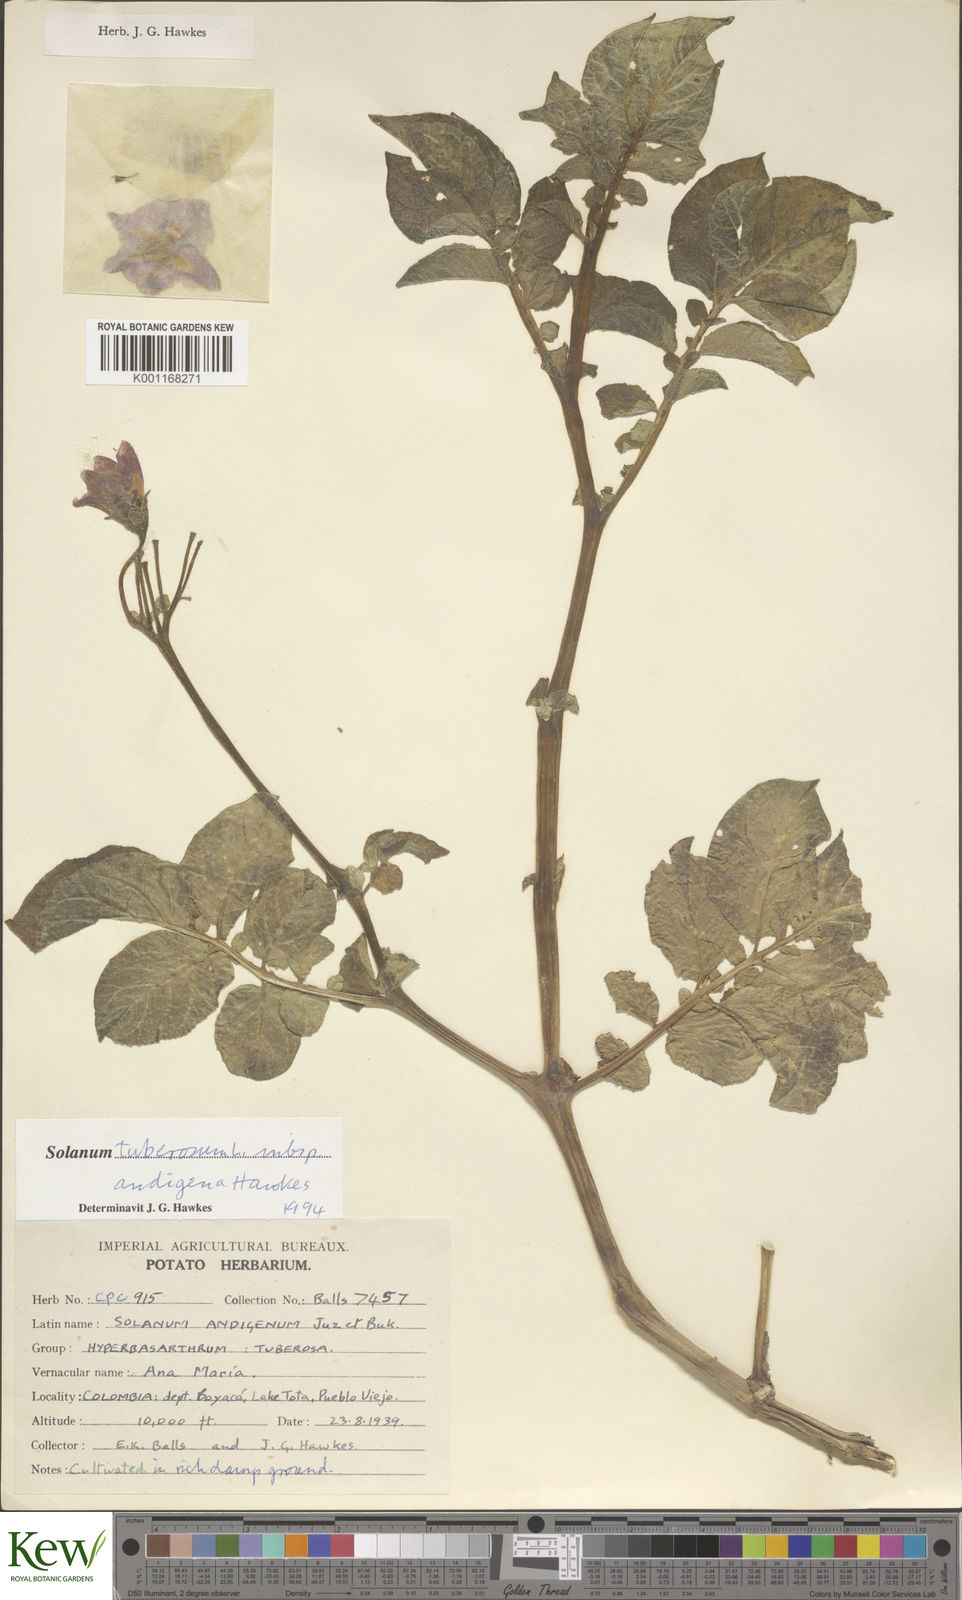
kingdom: Plantae
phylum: Tracheophyta
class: Magnoliopsida
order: Solanales
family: Solanaceae
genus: Solanum
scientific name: Solanum tuberosum
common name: Potato
